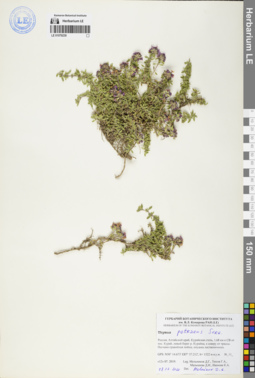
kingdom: Plantae
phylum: Tracheophyta
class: Magnoliopsida
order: Lamiales
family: Lamiaceae
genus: Thymus
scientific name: Thymus petraeus
